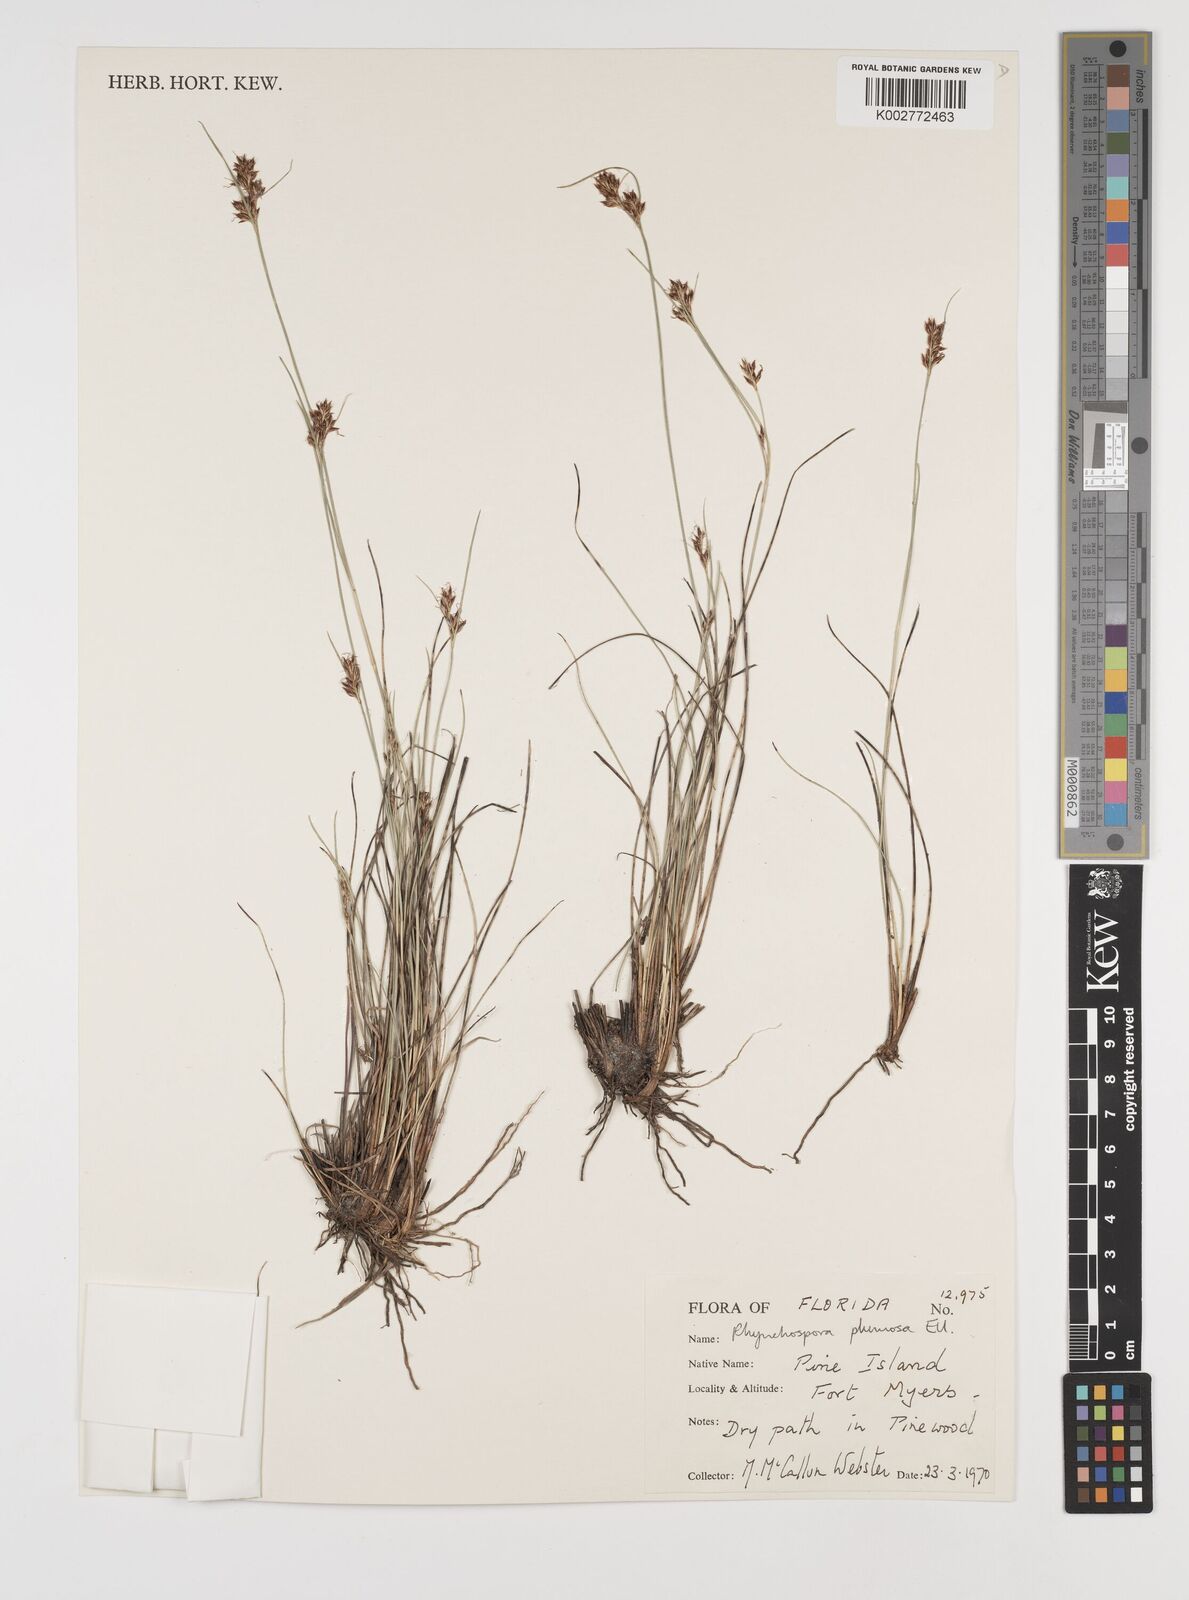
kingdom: Plantae
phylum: Tracheophyta
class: Liliopsida
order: Poales
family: Cyperaceae
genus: Rhynchospora
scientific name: Rhynchospora plumosa
